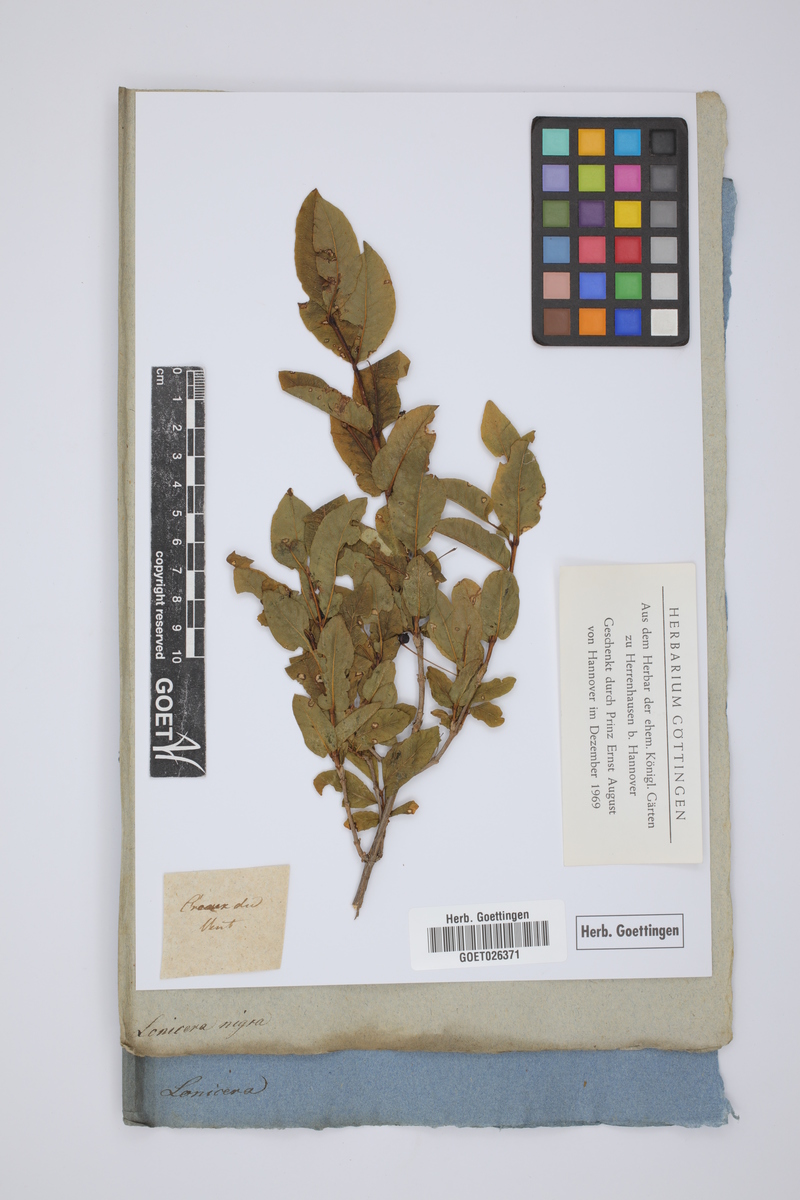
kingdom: Plantae
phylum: Tracheophyta
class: Magnoliopsida
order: Dipsacales
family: Caprifoliaceae
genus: Lonicera
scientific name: Lonicera nigra
